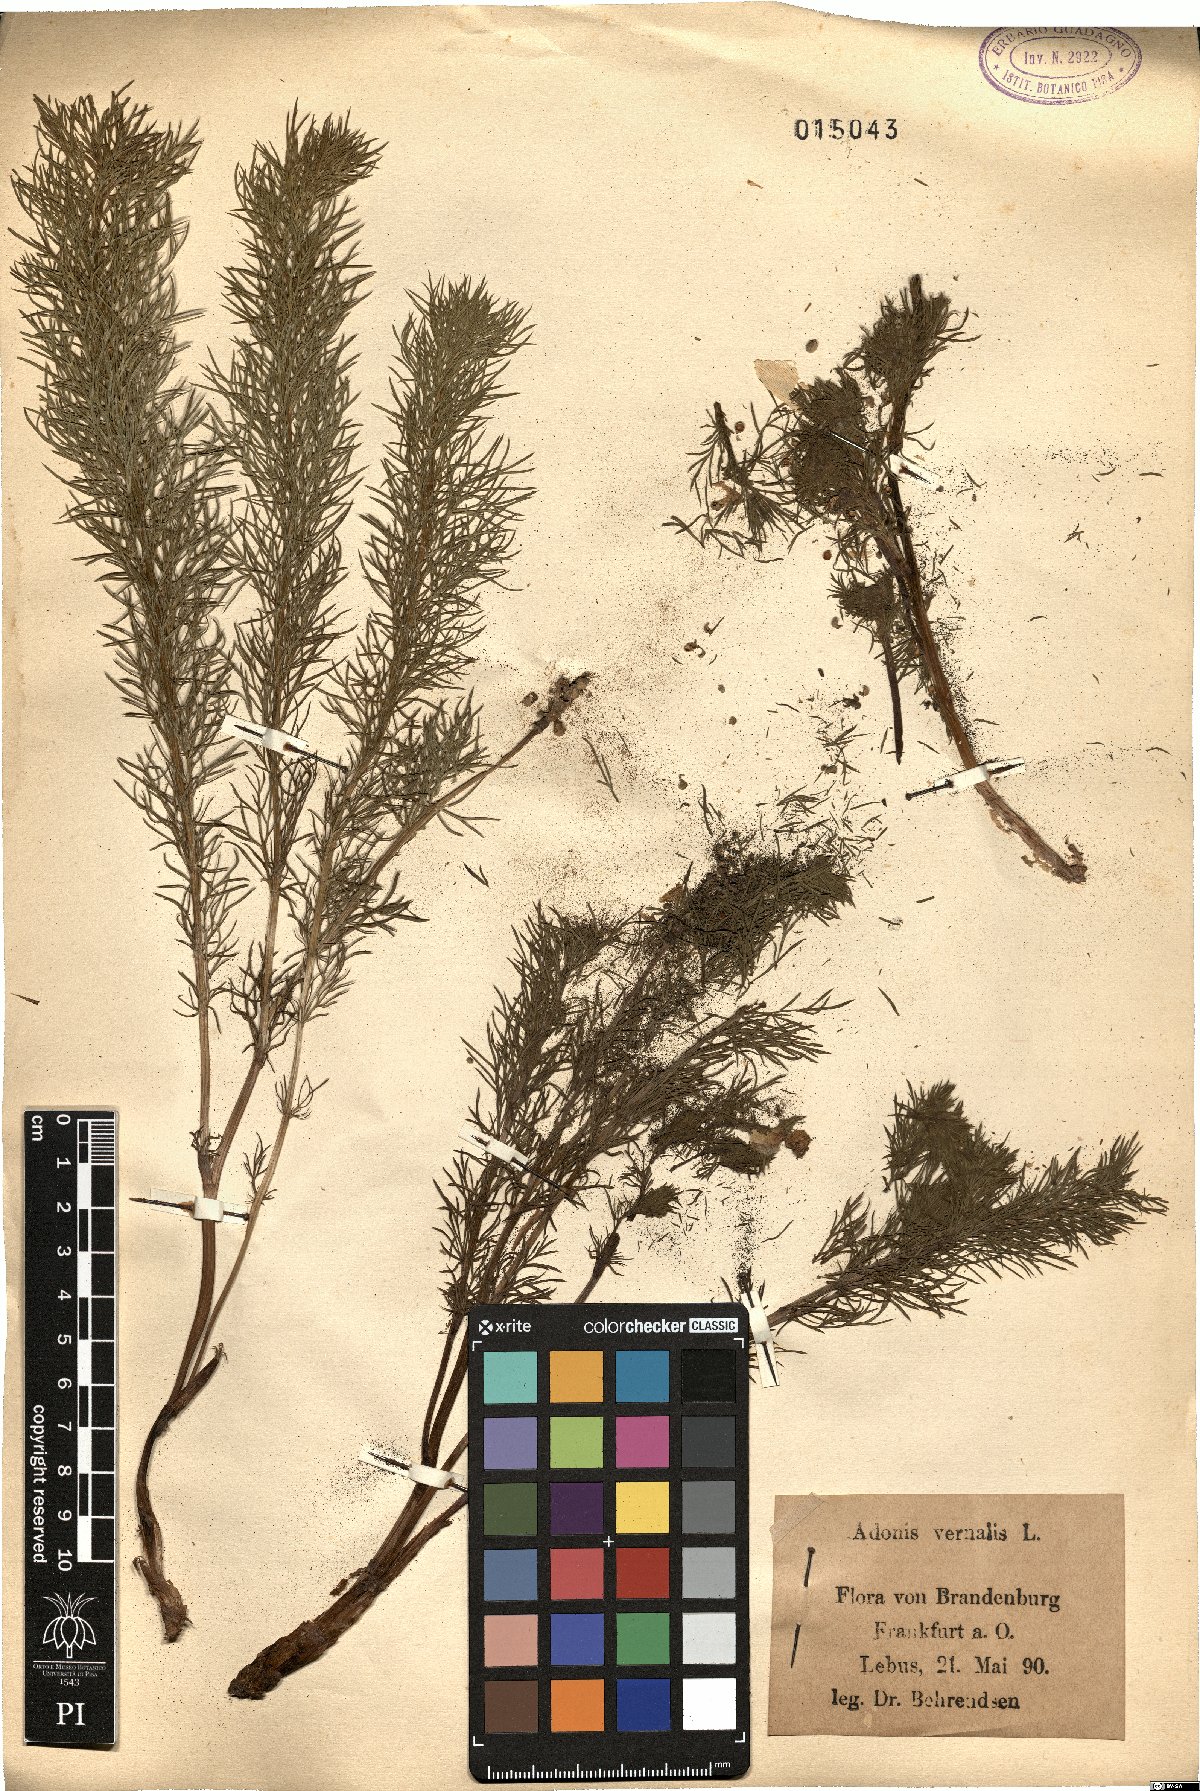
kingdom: Plantae
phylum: Tracheophyta
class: Magnoliopsida
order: Ranunculales
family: Ranunculaceae
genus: Adonis
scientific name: Adonis vernalis
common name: Yellow pheasants-eye
